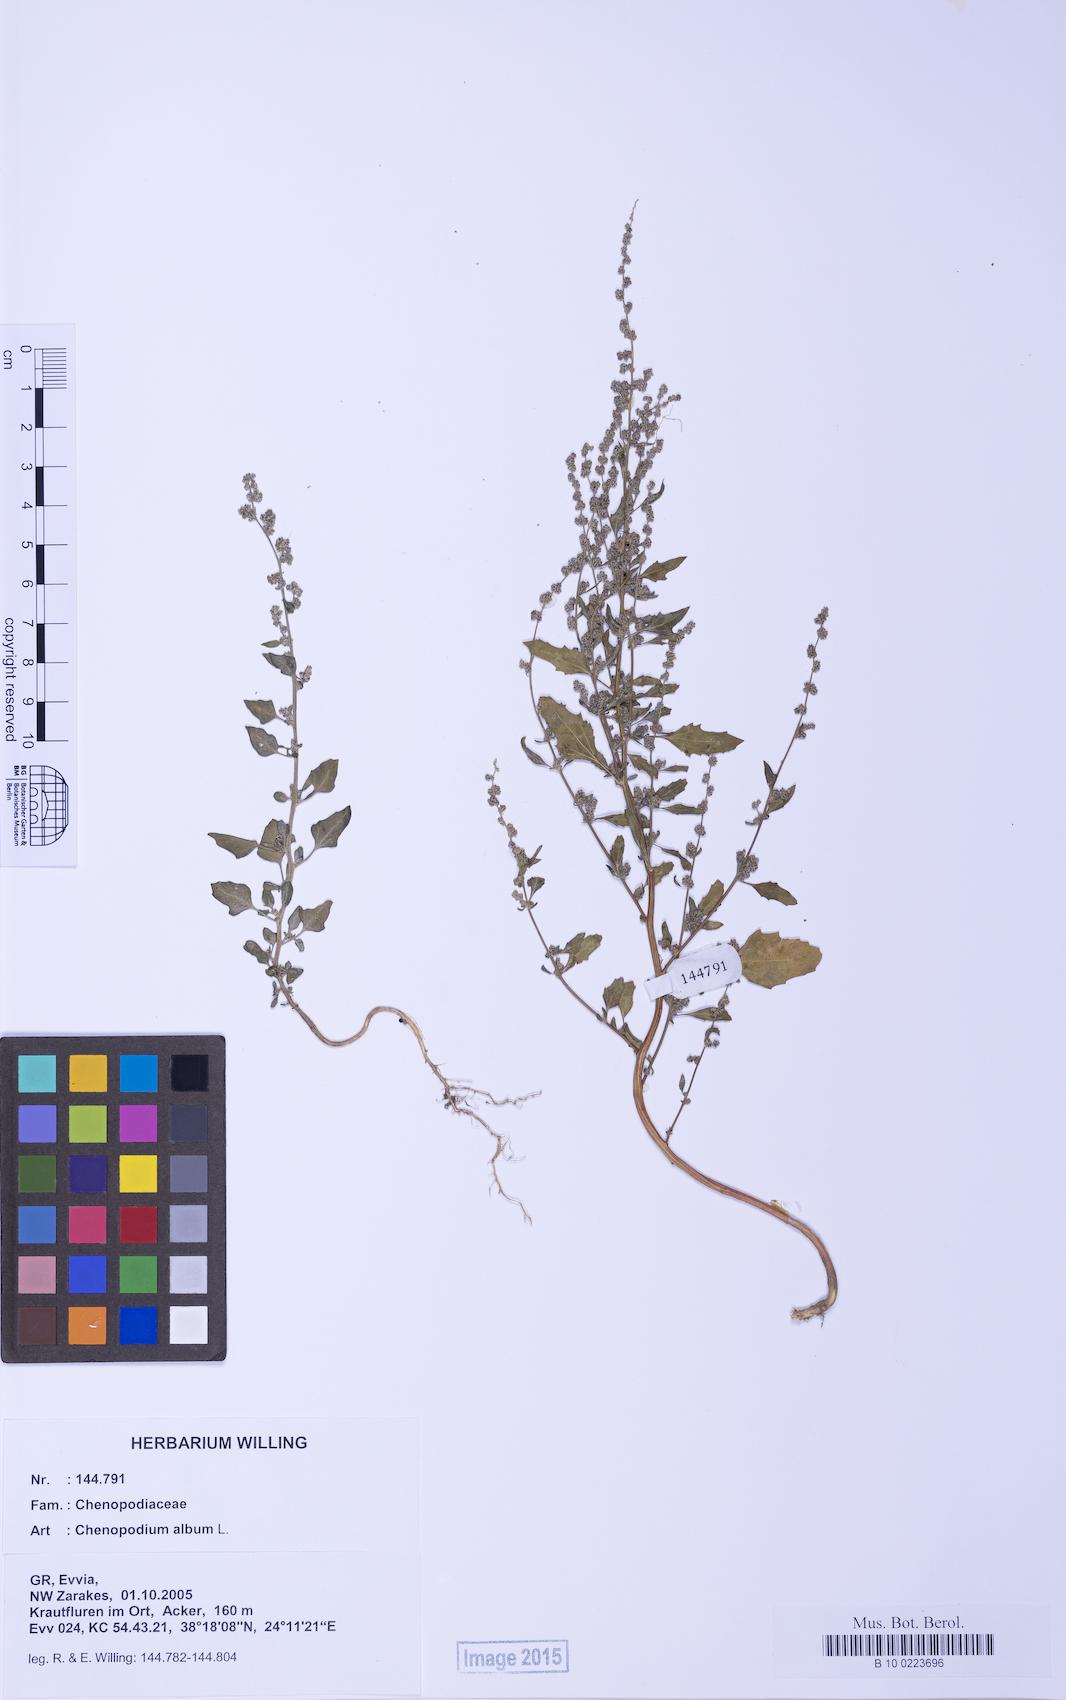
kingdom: Plantae
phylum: Tracheophyta
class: Magnoliopsida
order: Caryophyllales
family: Amaranthaceae
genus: Chenopodium
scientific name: Chenopodium album
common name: Fat-hen
